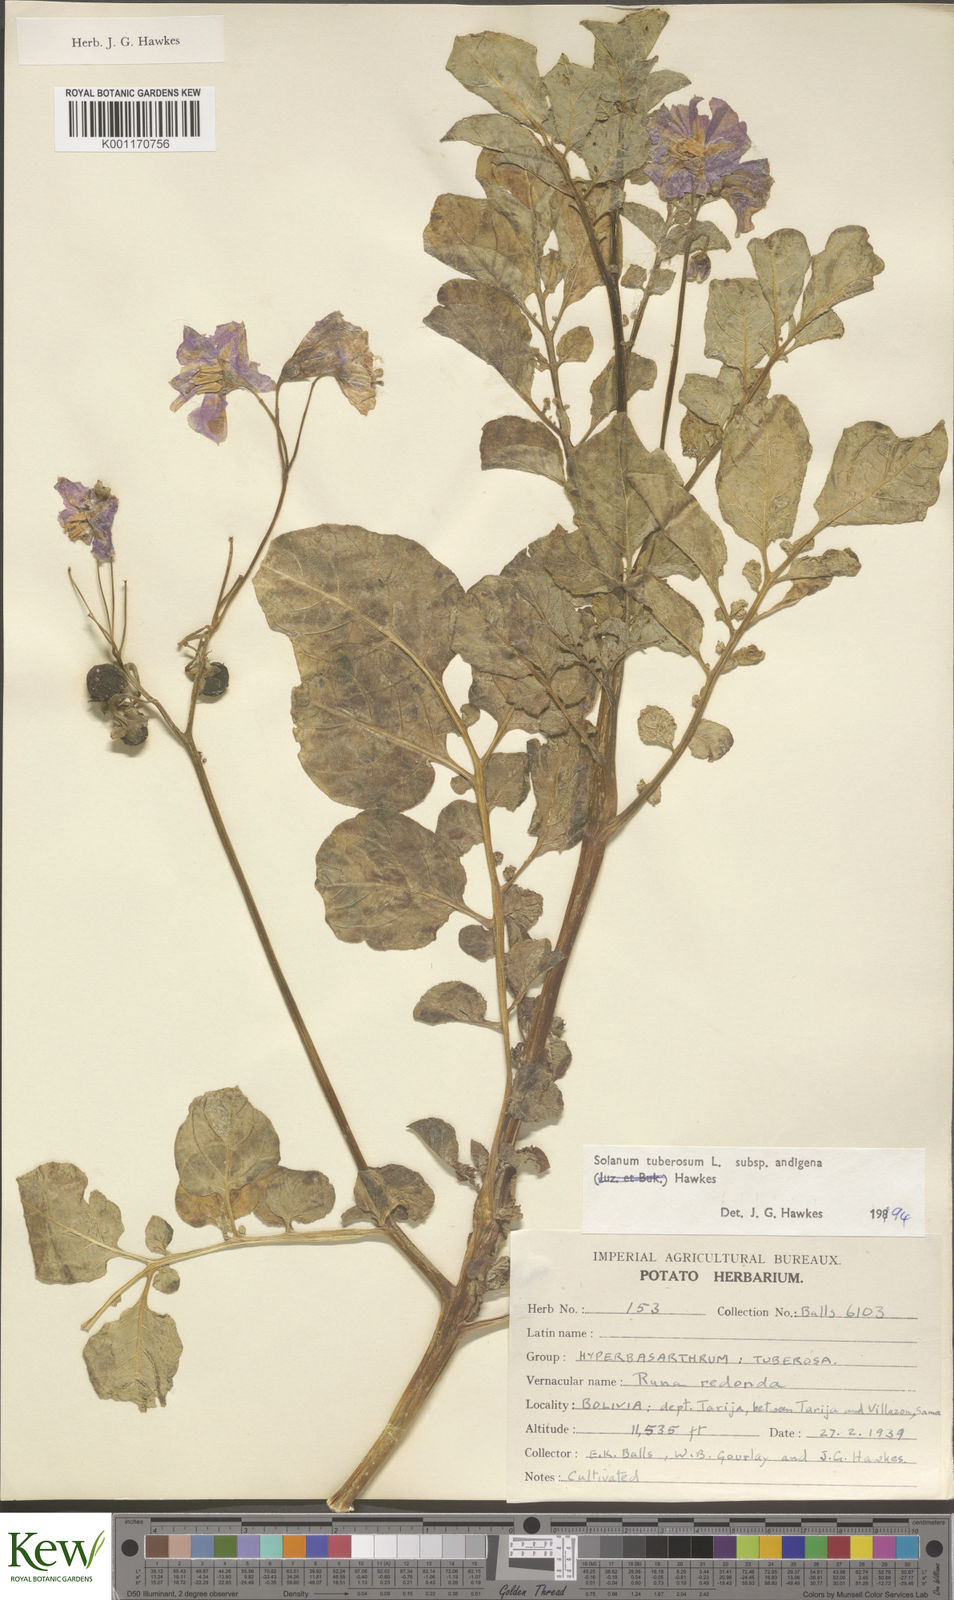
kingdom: Plantae
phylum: Tracheophyta
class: Magnoliopsida
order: Solanales
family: Solanaceae
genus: Solanum
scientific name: Solanum tuberosum
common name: Potato
